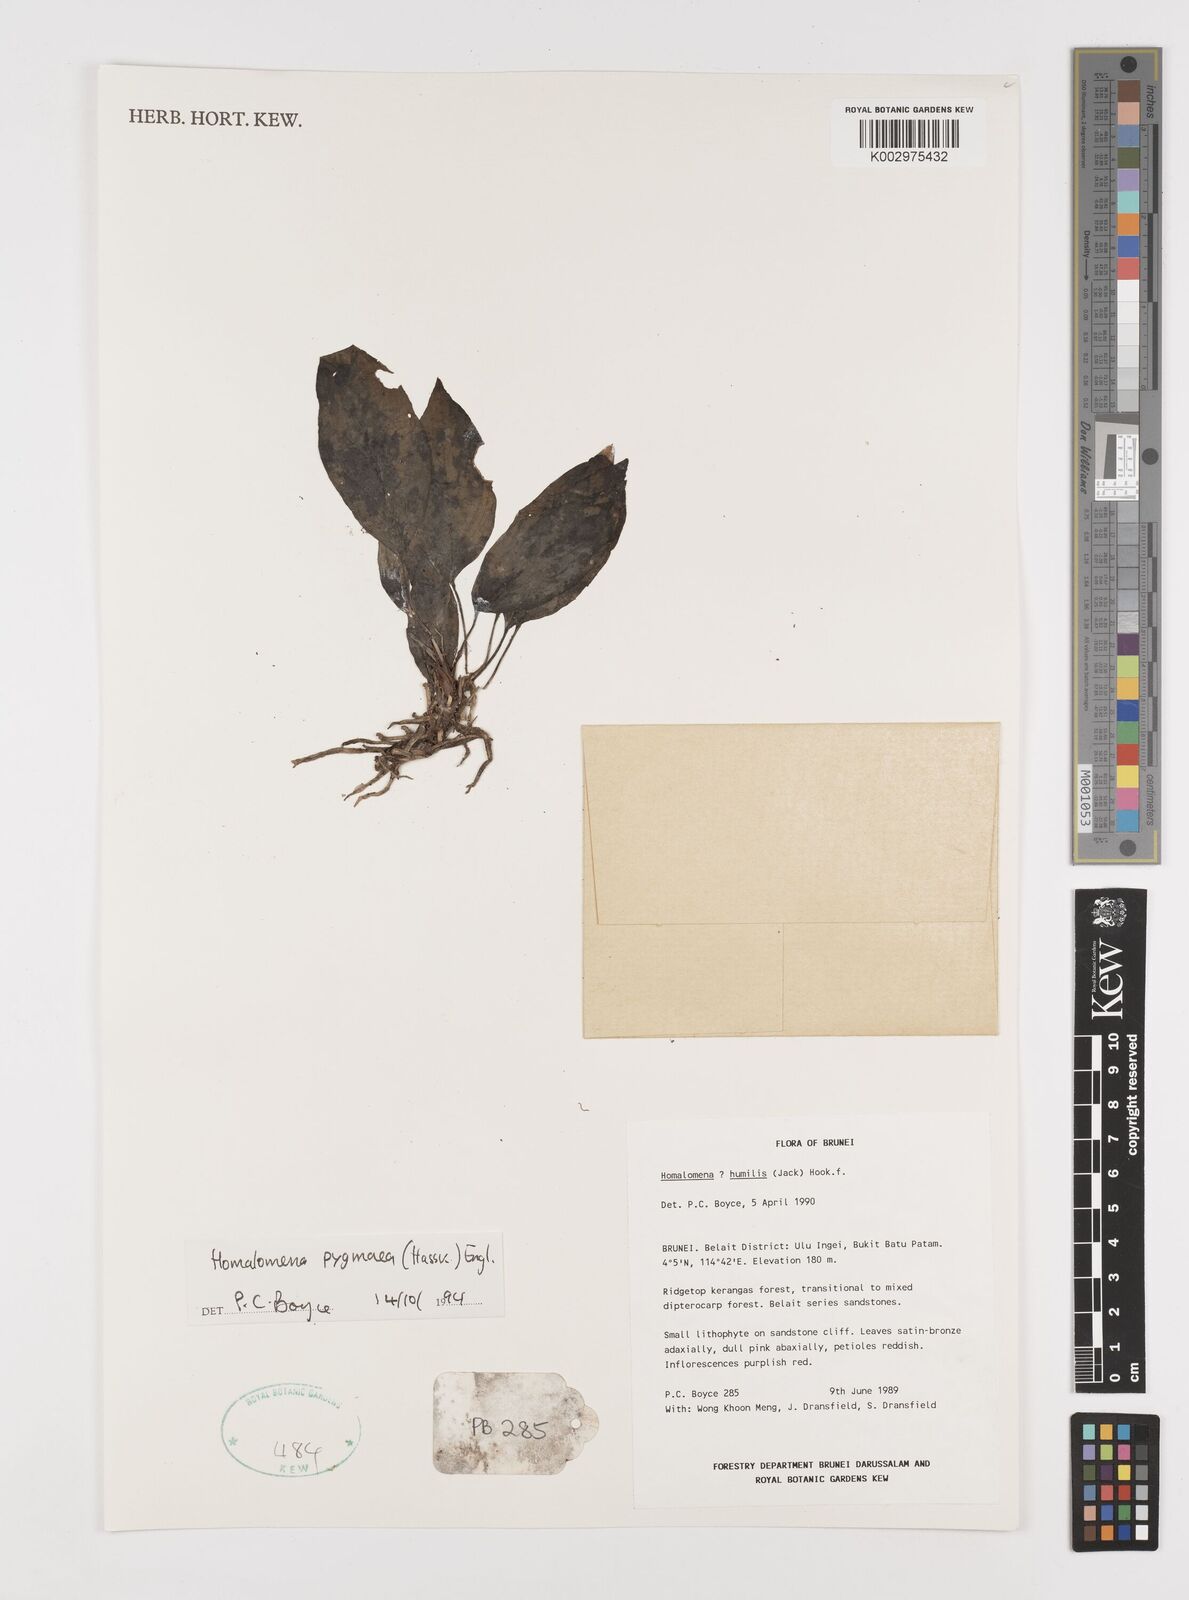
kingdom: Plantae
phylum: Tracheophyta
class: Liliopsida
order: Alismatales
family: Araceae
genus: Homalomena
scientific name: Homalomena humilis
